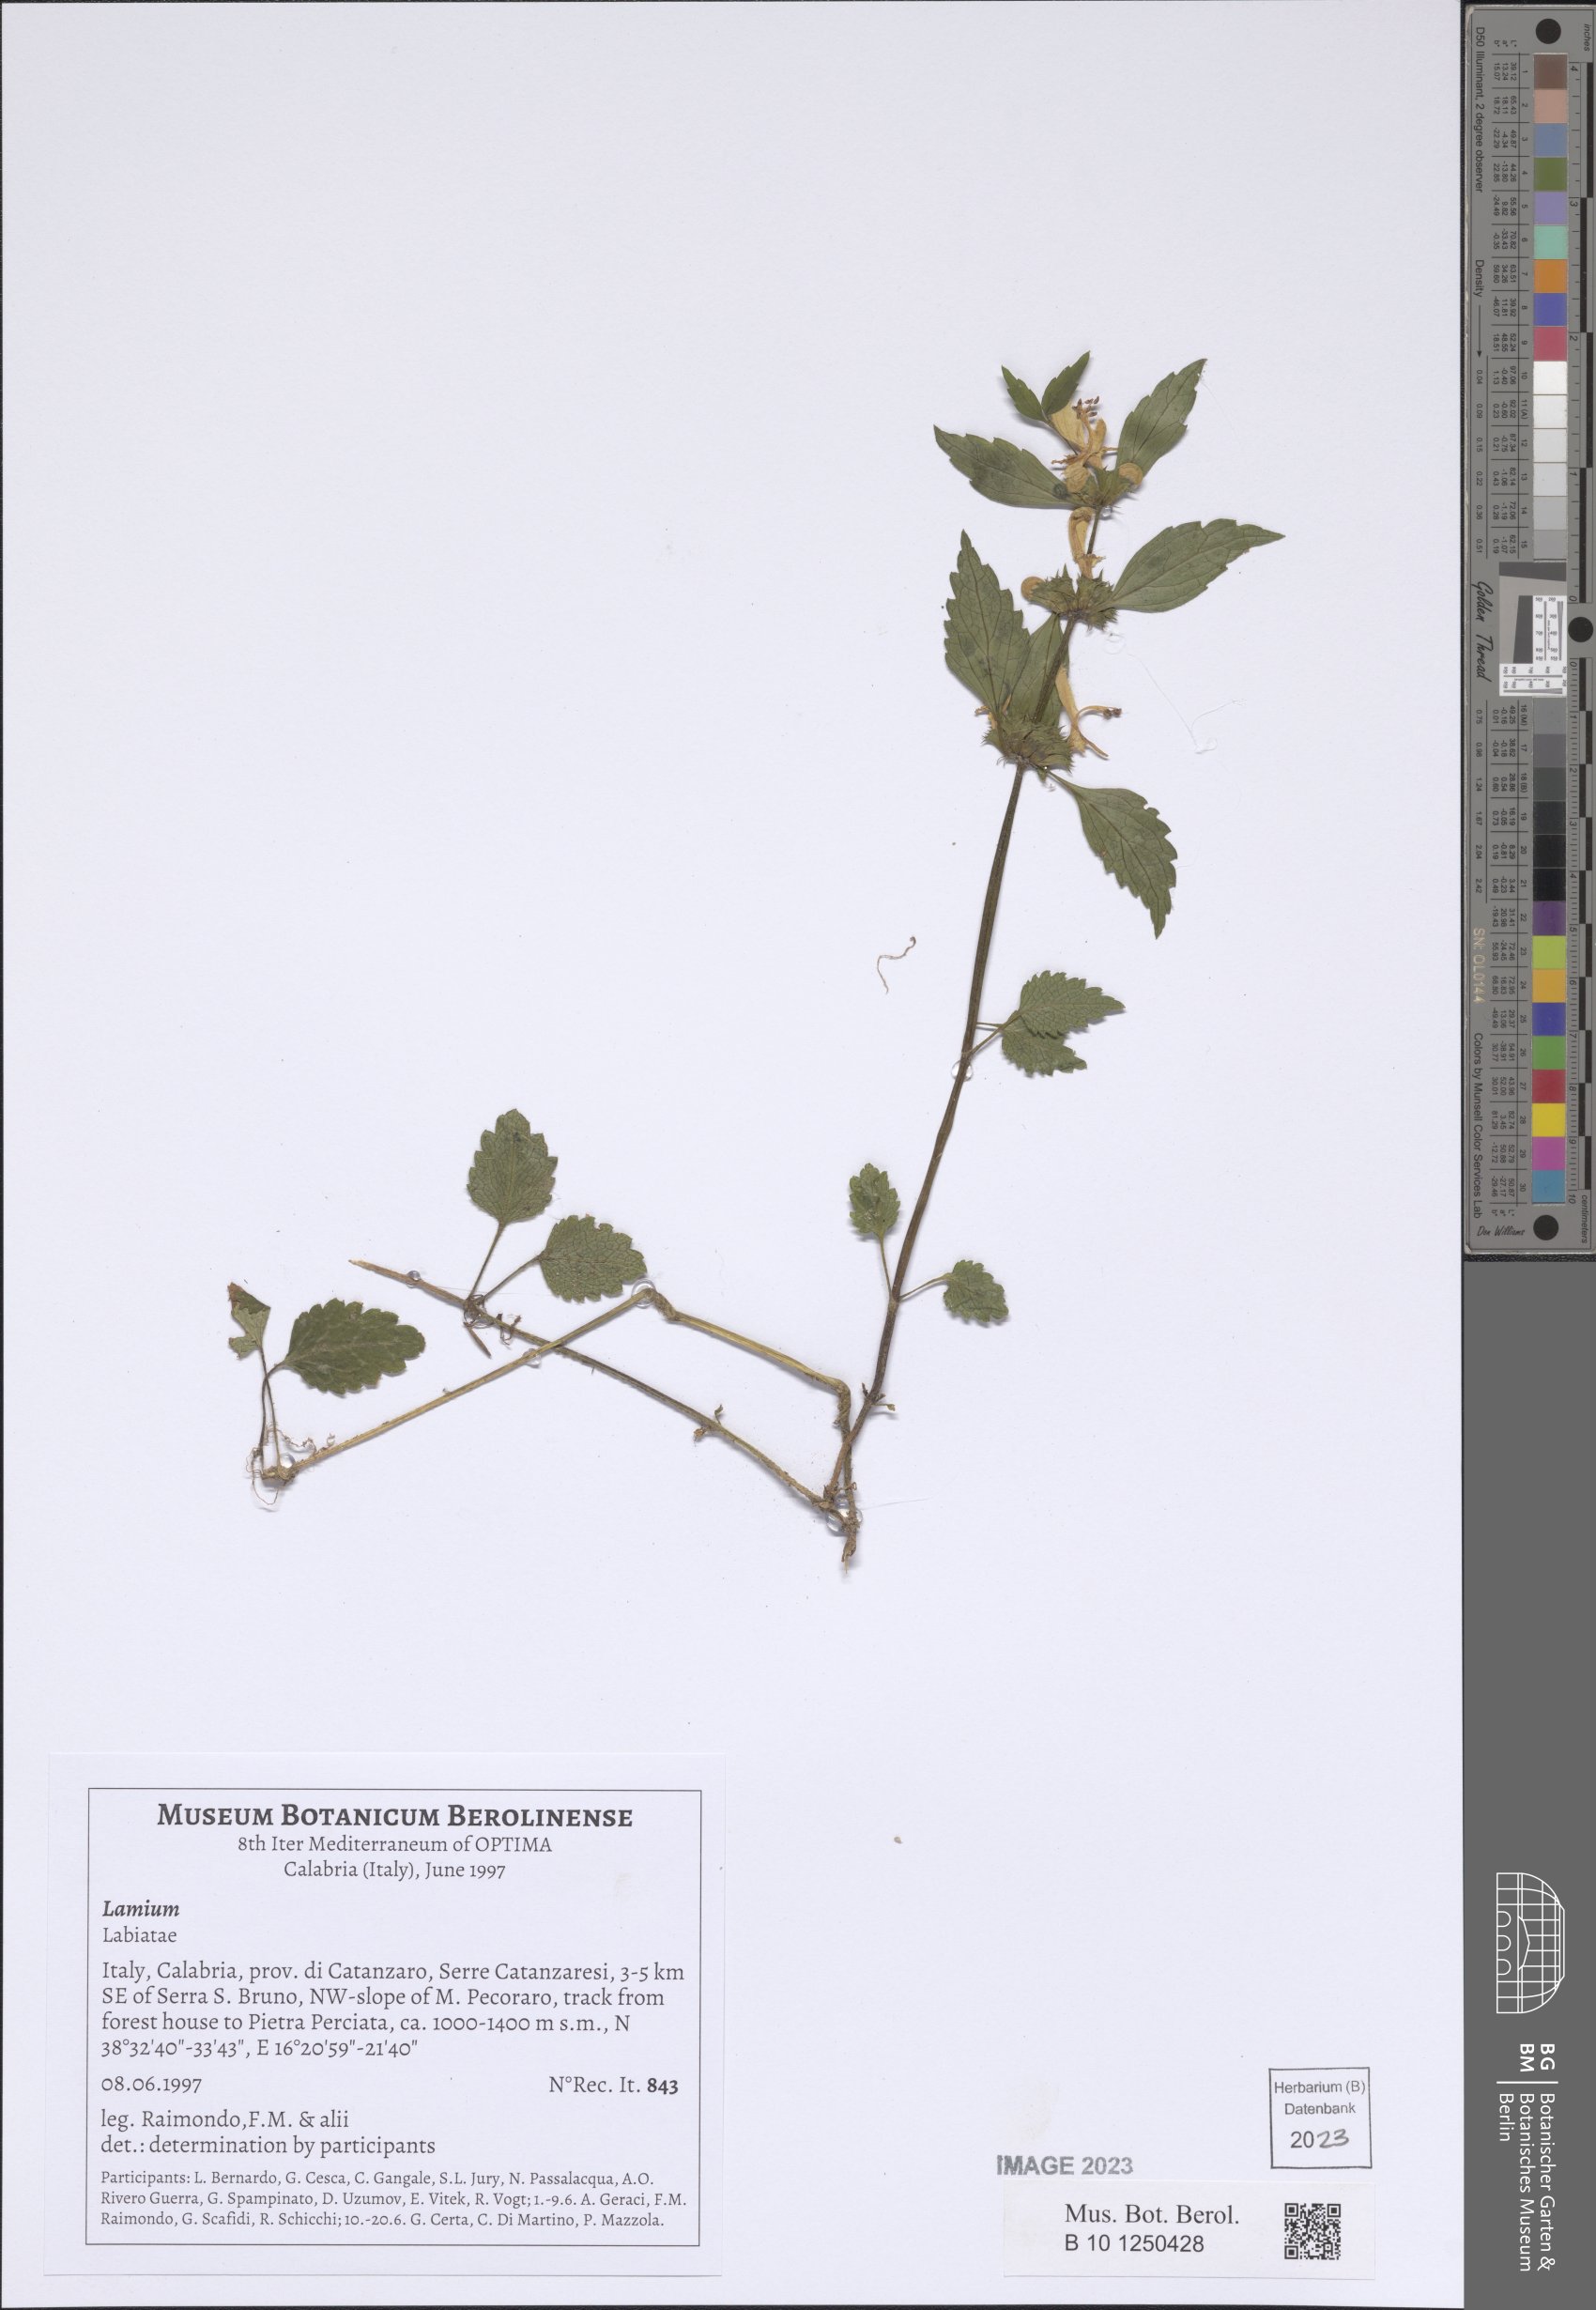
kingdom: Plantae
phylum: Tracheophyta
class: Magnoliopsida
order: Lamiales
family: Lamiaceae
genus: Lamium
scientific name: Lamium
